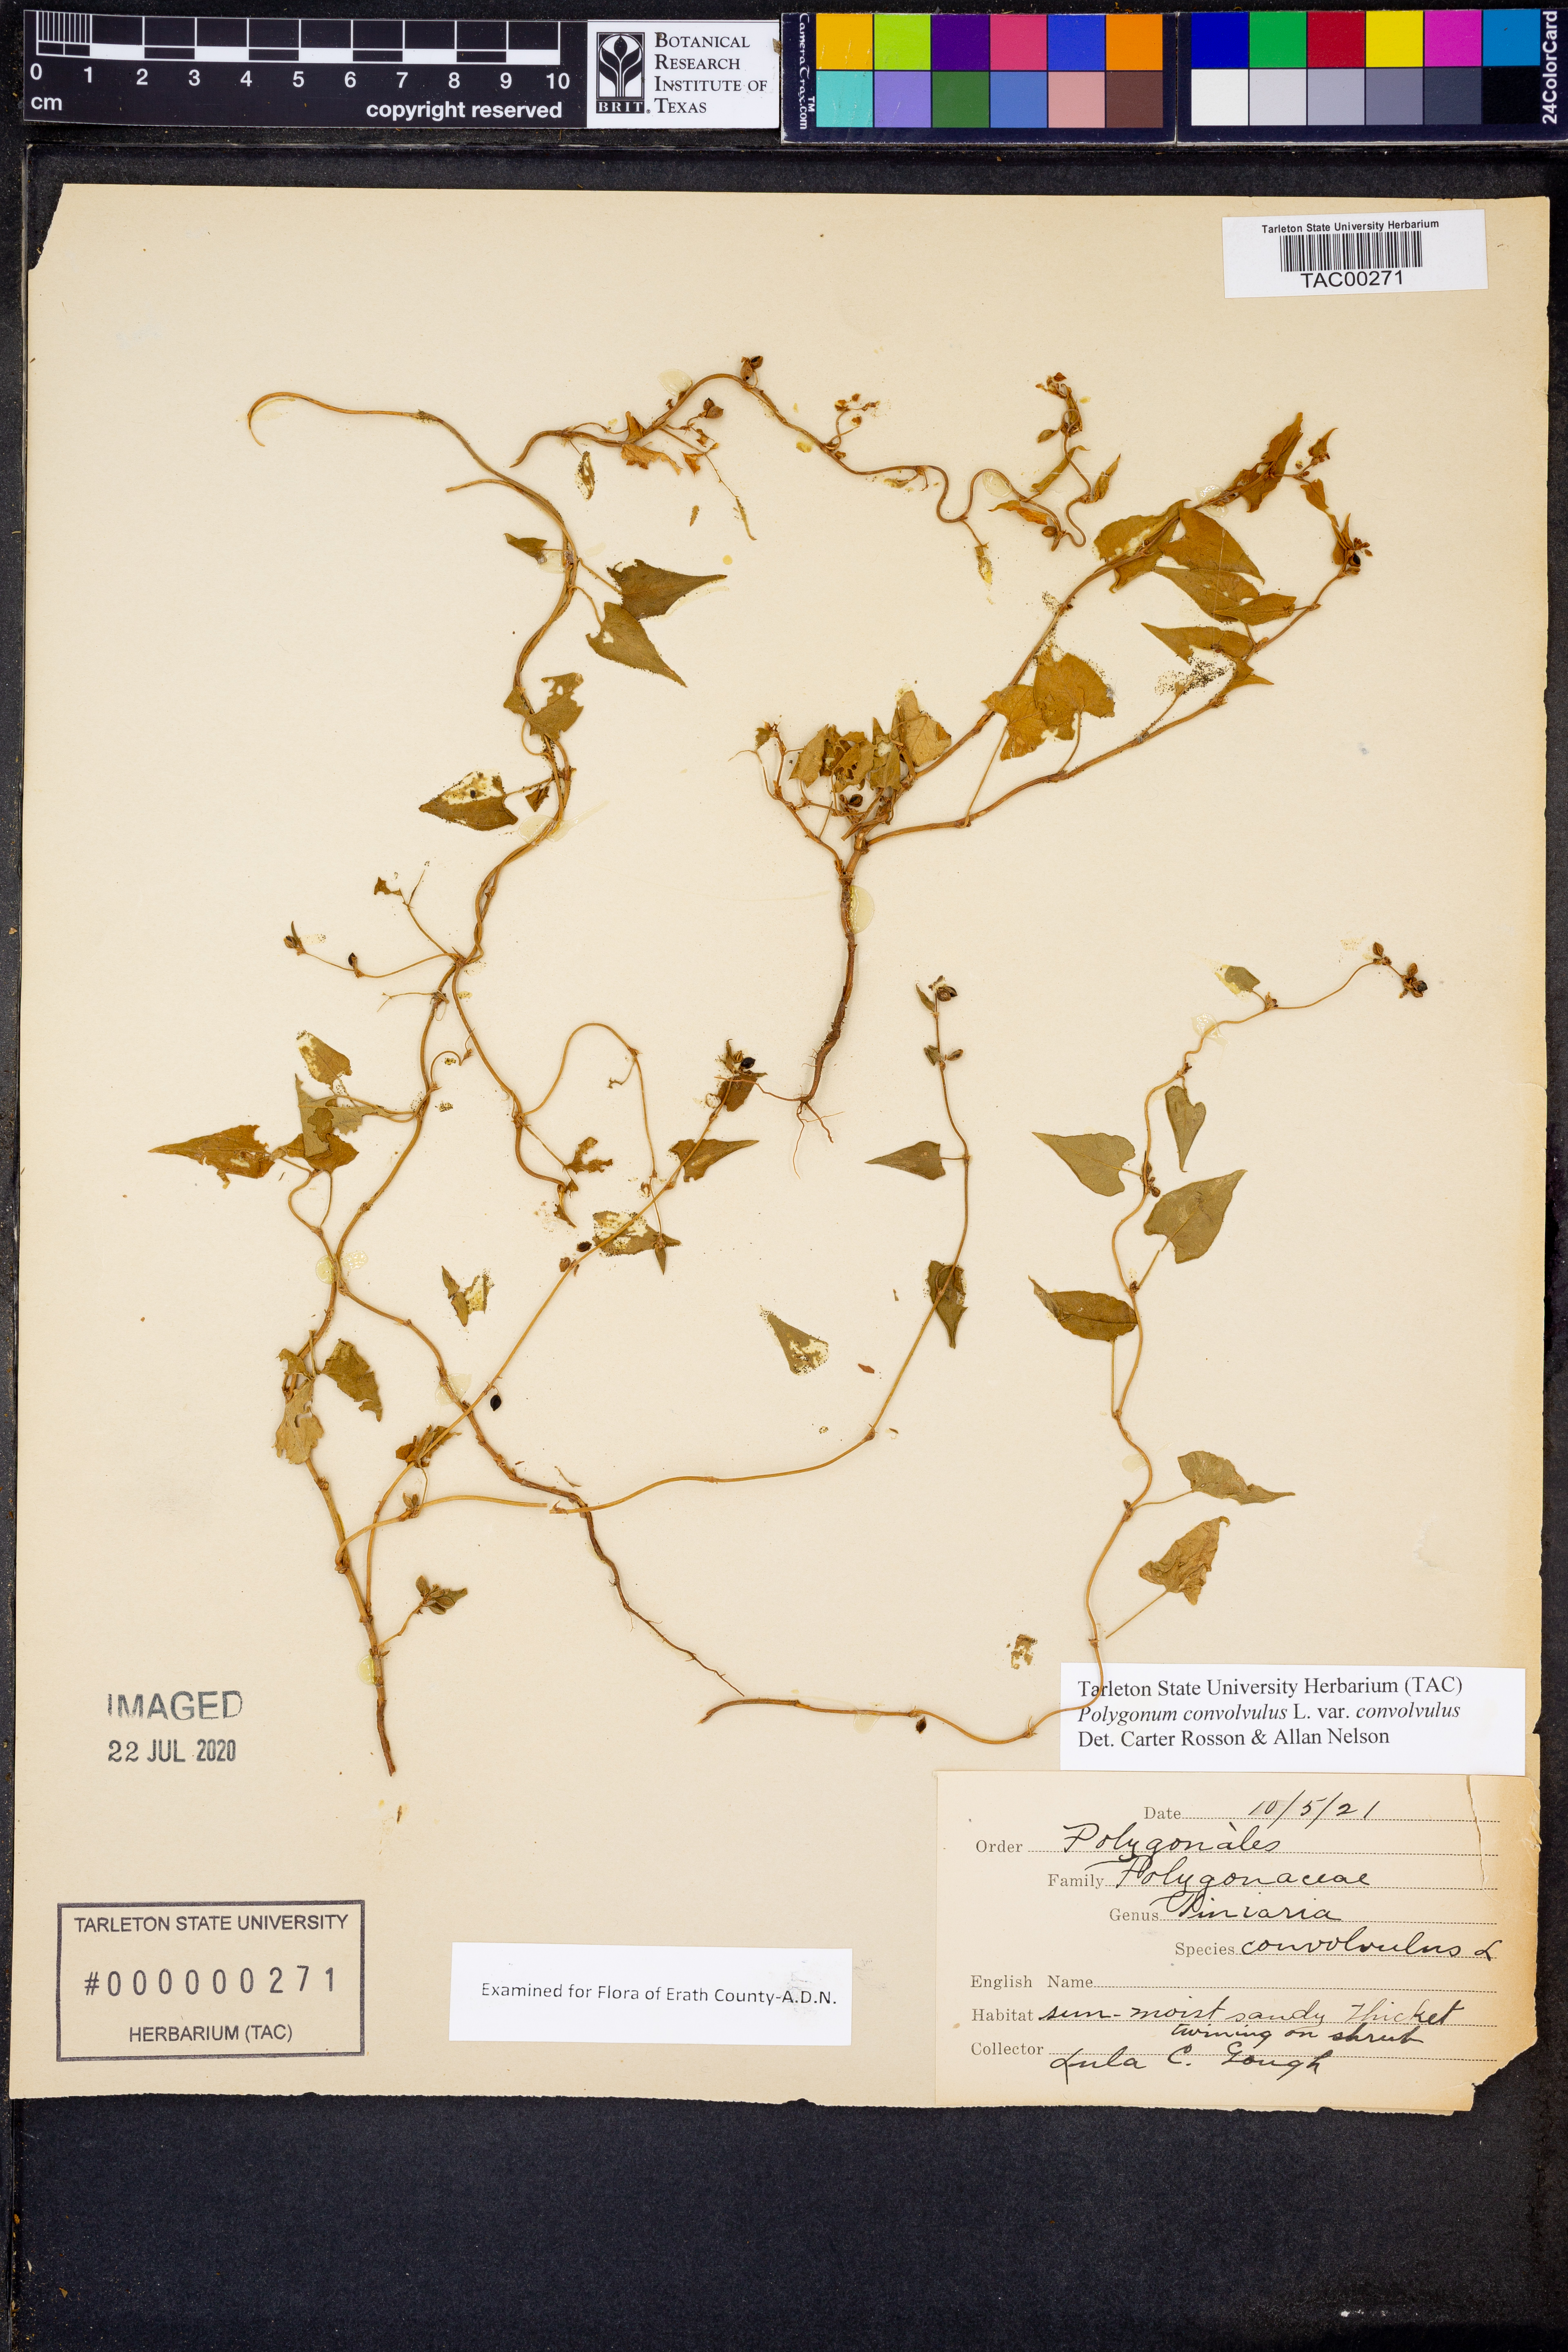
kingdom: Plantae
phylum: Tracheophyta
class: Magnoliopsida
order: Caryophyllales
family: Polygonaceae
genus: Fallopia
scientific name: Fallopia convolvulus
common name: Black bindweed
